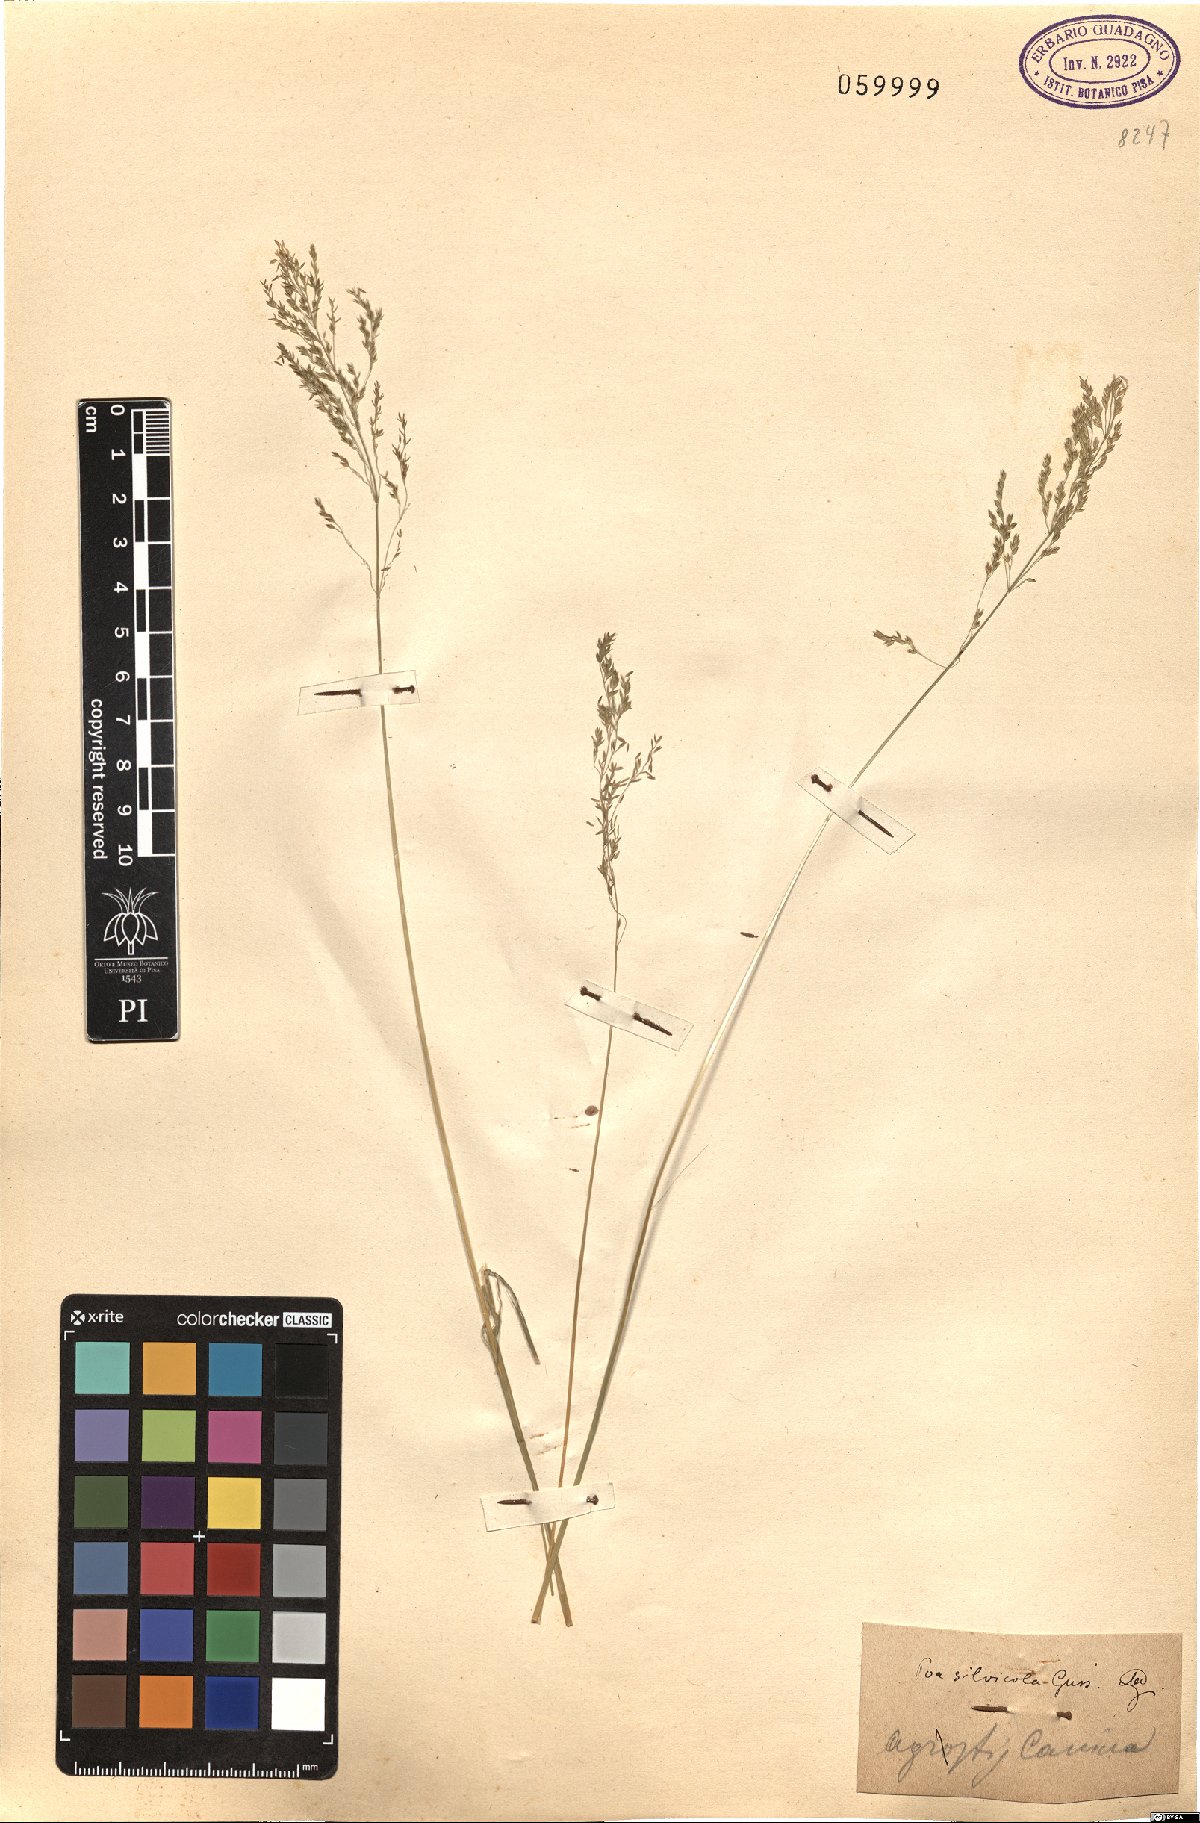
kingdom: Plantae
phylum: Tracheophyta
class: Liliopsida
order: Poales
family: Poaceae
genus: Poa
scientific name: Poa trivialis
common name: Rough bluegrass
